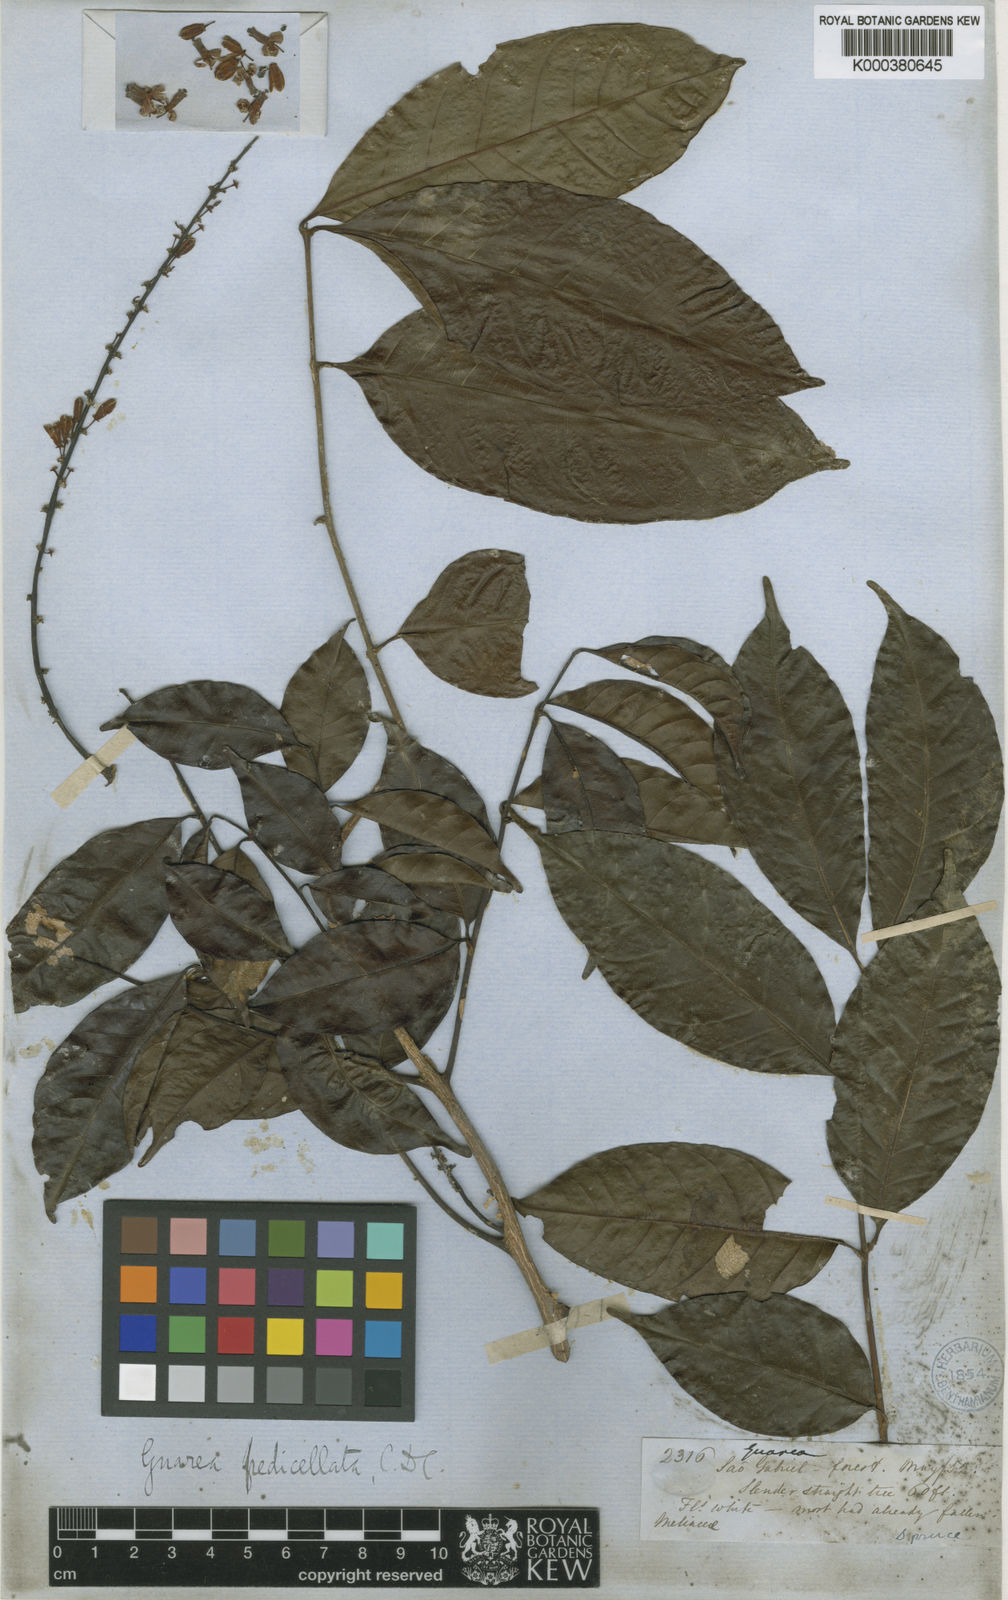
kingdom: Plantae
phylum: Tracheophyta
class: Magnoliopsida
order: Sapindales
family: Meliaceae
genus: Guarea
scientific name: Guarea silvatica
